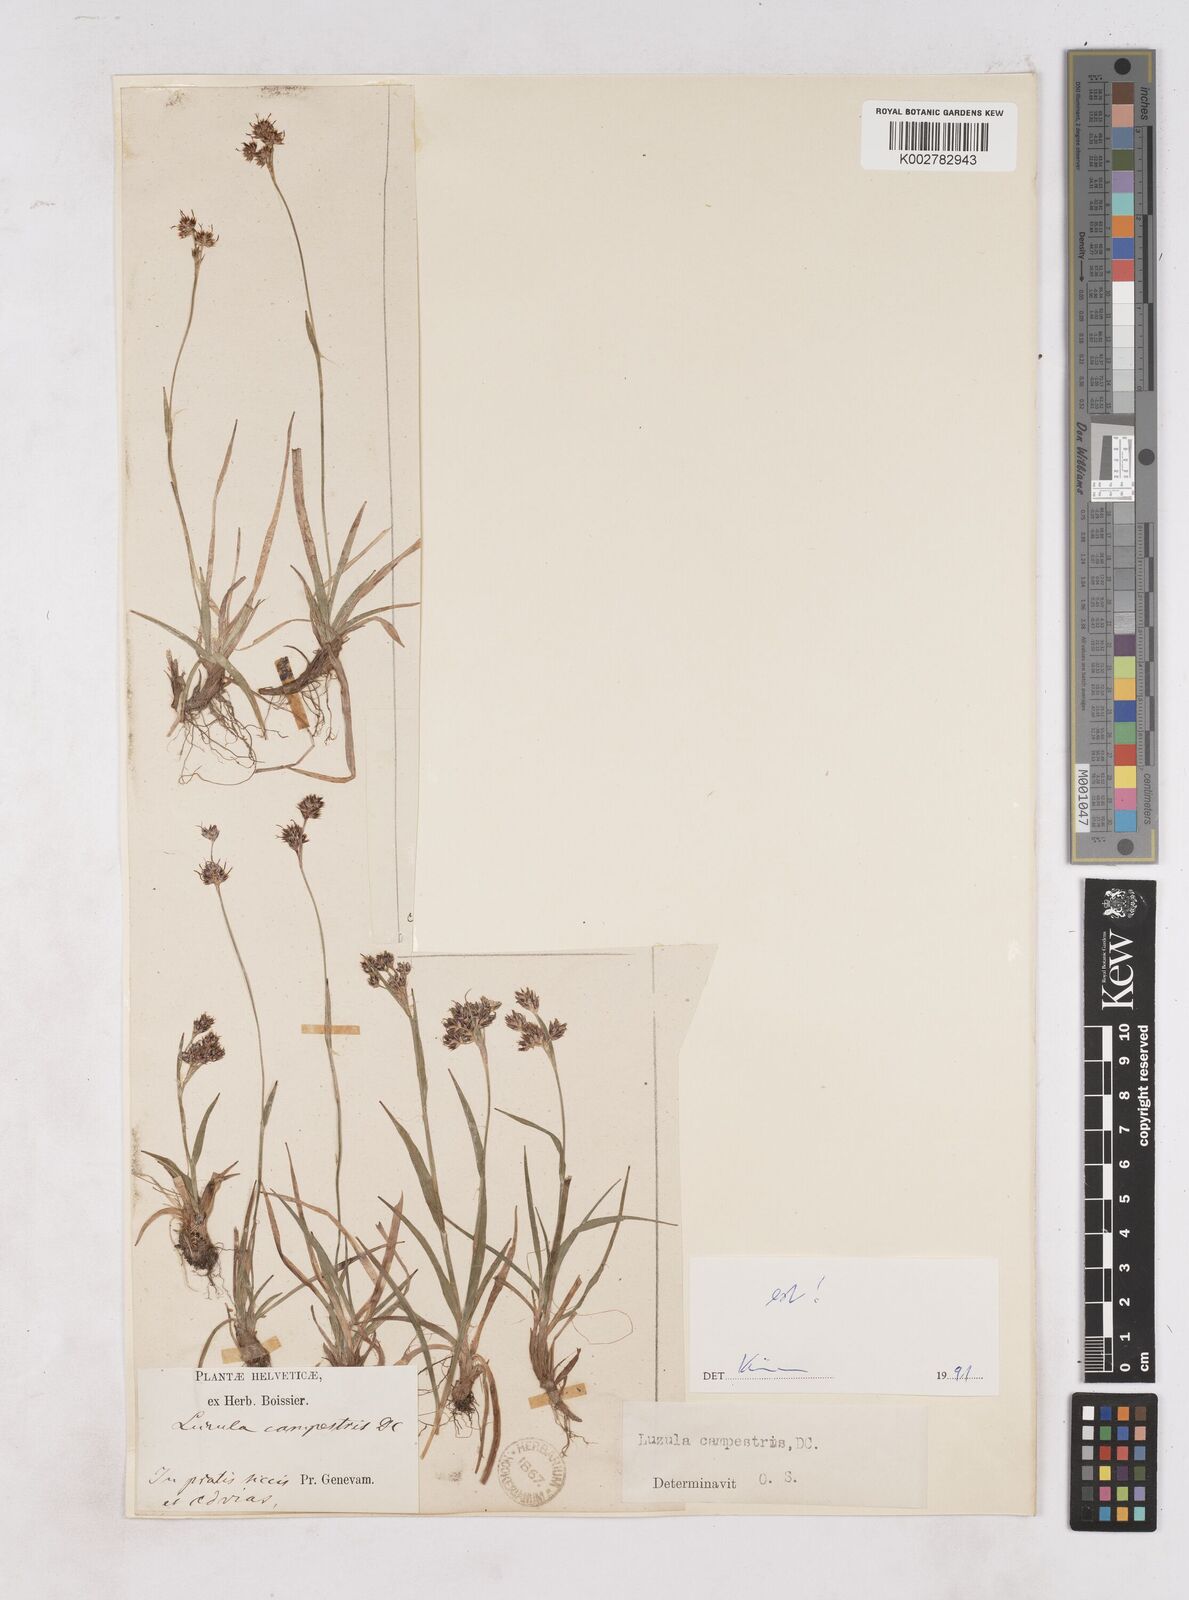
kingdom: Plantae
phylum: Tracheophyta
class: Liliopsida
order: Poales
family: Juncaceae
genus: Luzula
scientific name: Luzula campestris
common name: Field wood-rush
